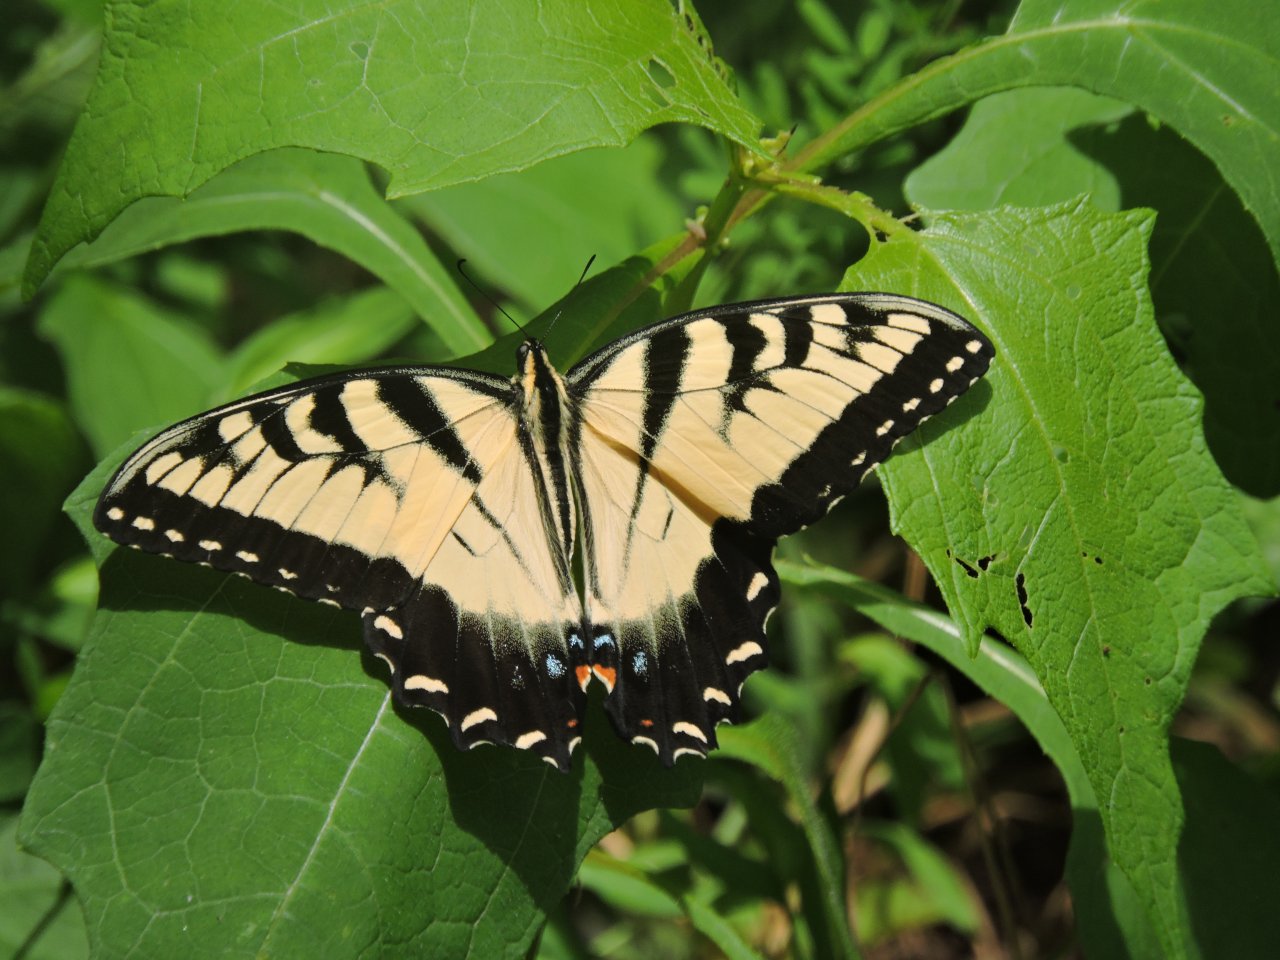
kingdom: Animalia
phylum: Arthropoda
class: Insecta
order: Lepidoptera
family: Papilionidae
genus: Pterourus
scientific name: Pterourus glaucus
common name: Eastern Tiger Swallowtail
